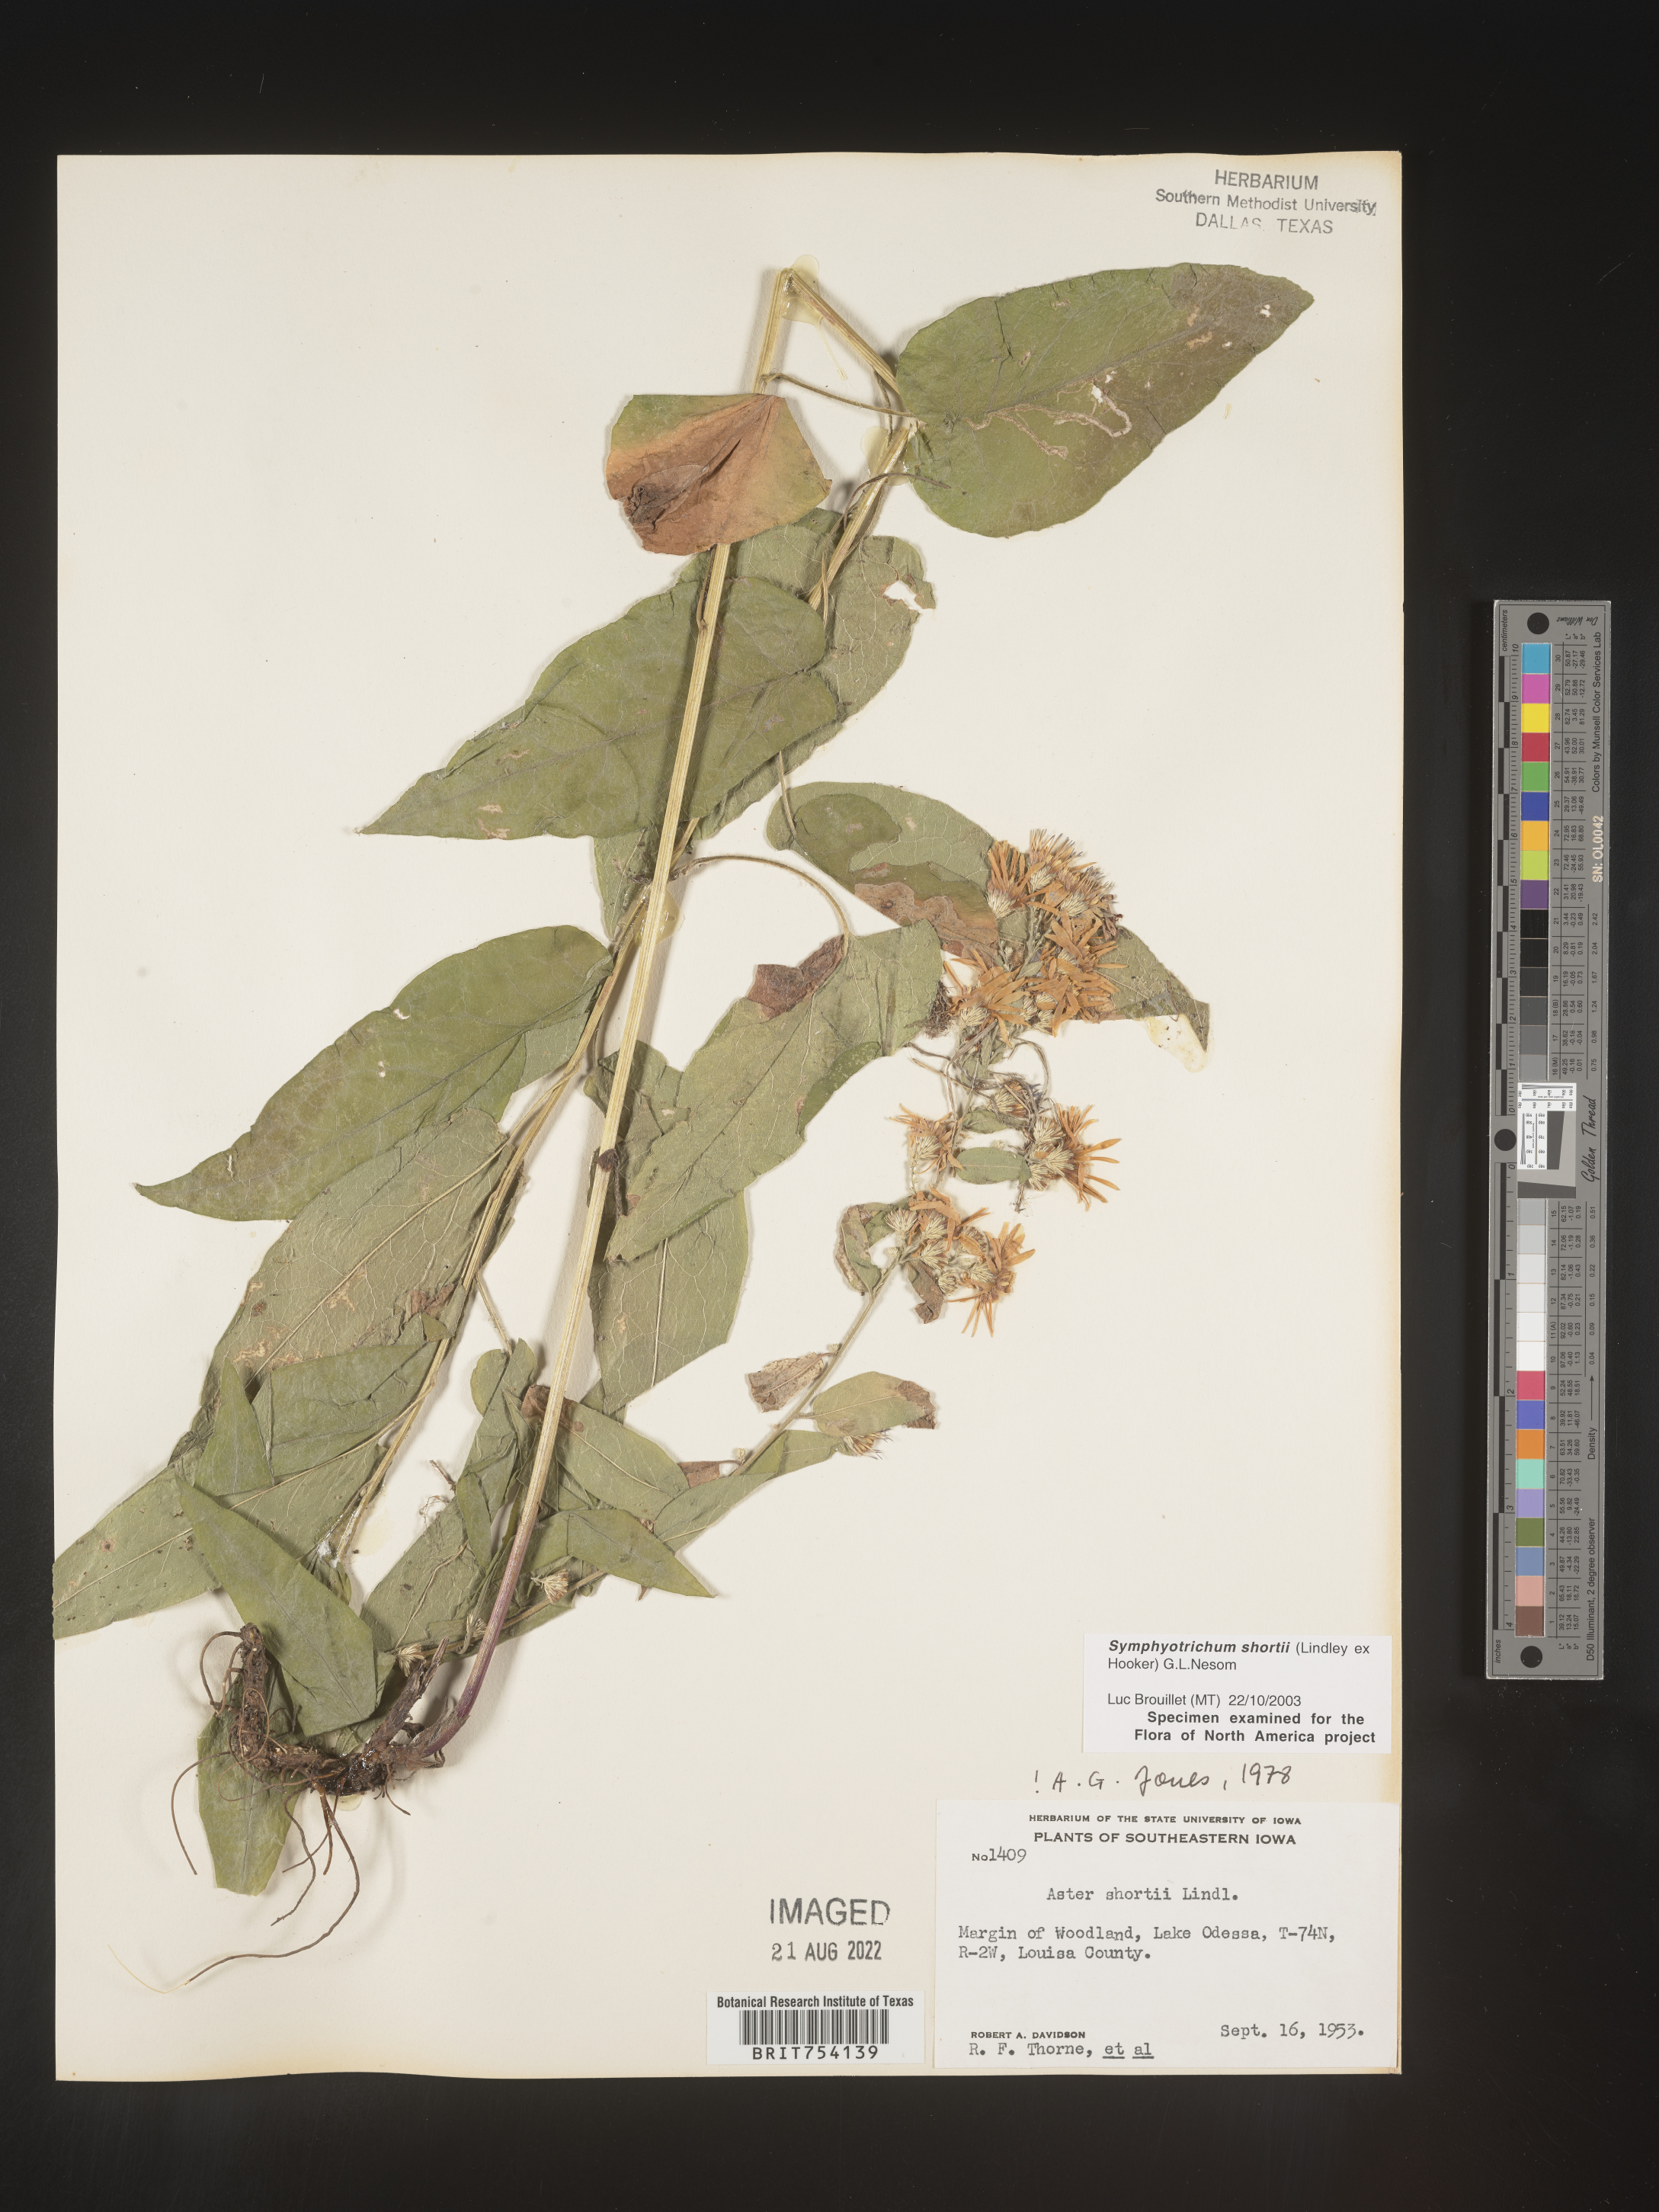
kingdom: Plantae
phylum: Tracheophyta
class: Magnoliopsida
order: Asterales
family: Asteraceae
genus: Symphyotrichum
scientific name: Symphyotrichum shortii
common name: Short's aster
